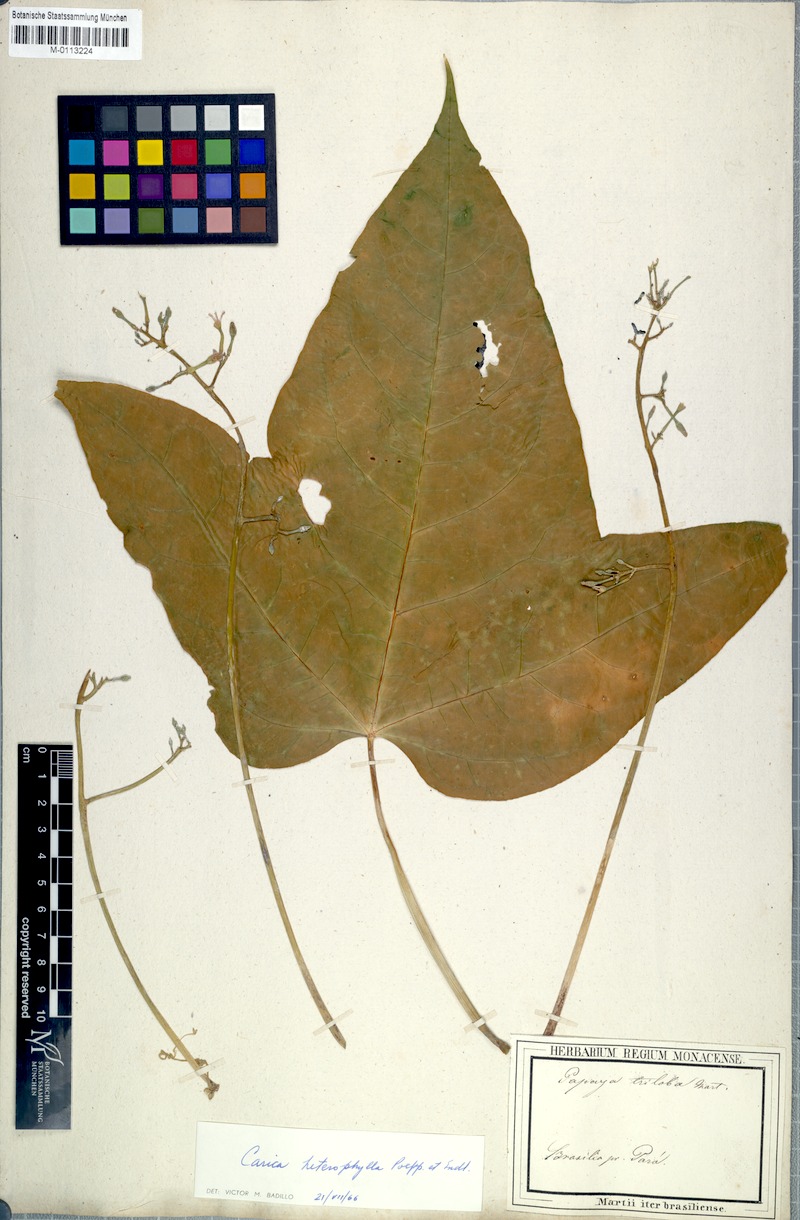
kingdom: Plantae
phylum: Tracheophyta
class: Magnoliopsida
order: Brassicales
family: Caricaceae
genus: Vasconcellea
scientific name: Vasconcellea microcarpa
